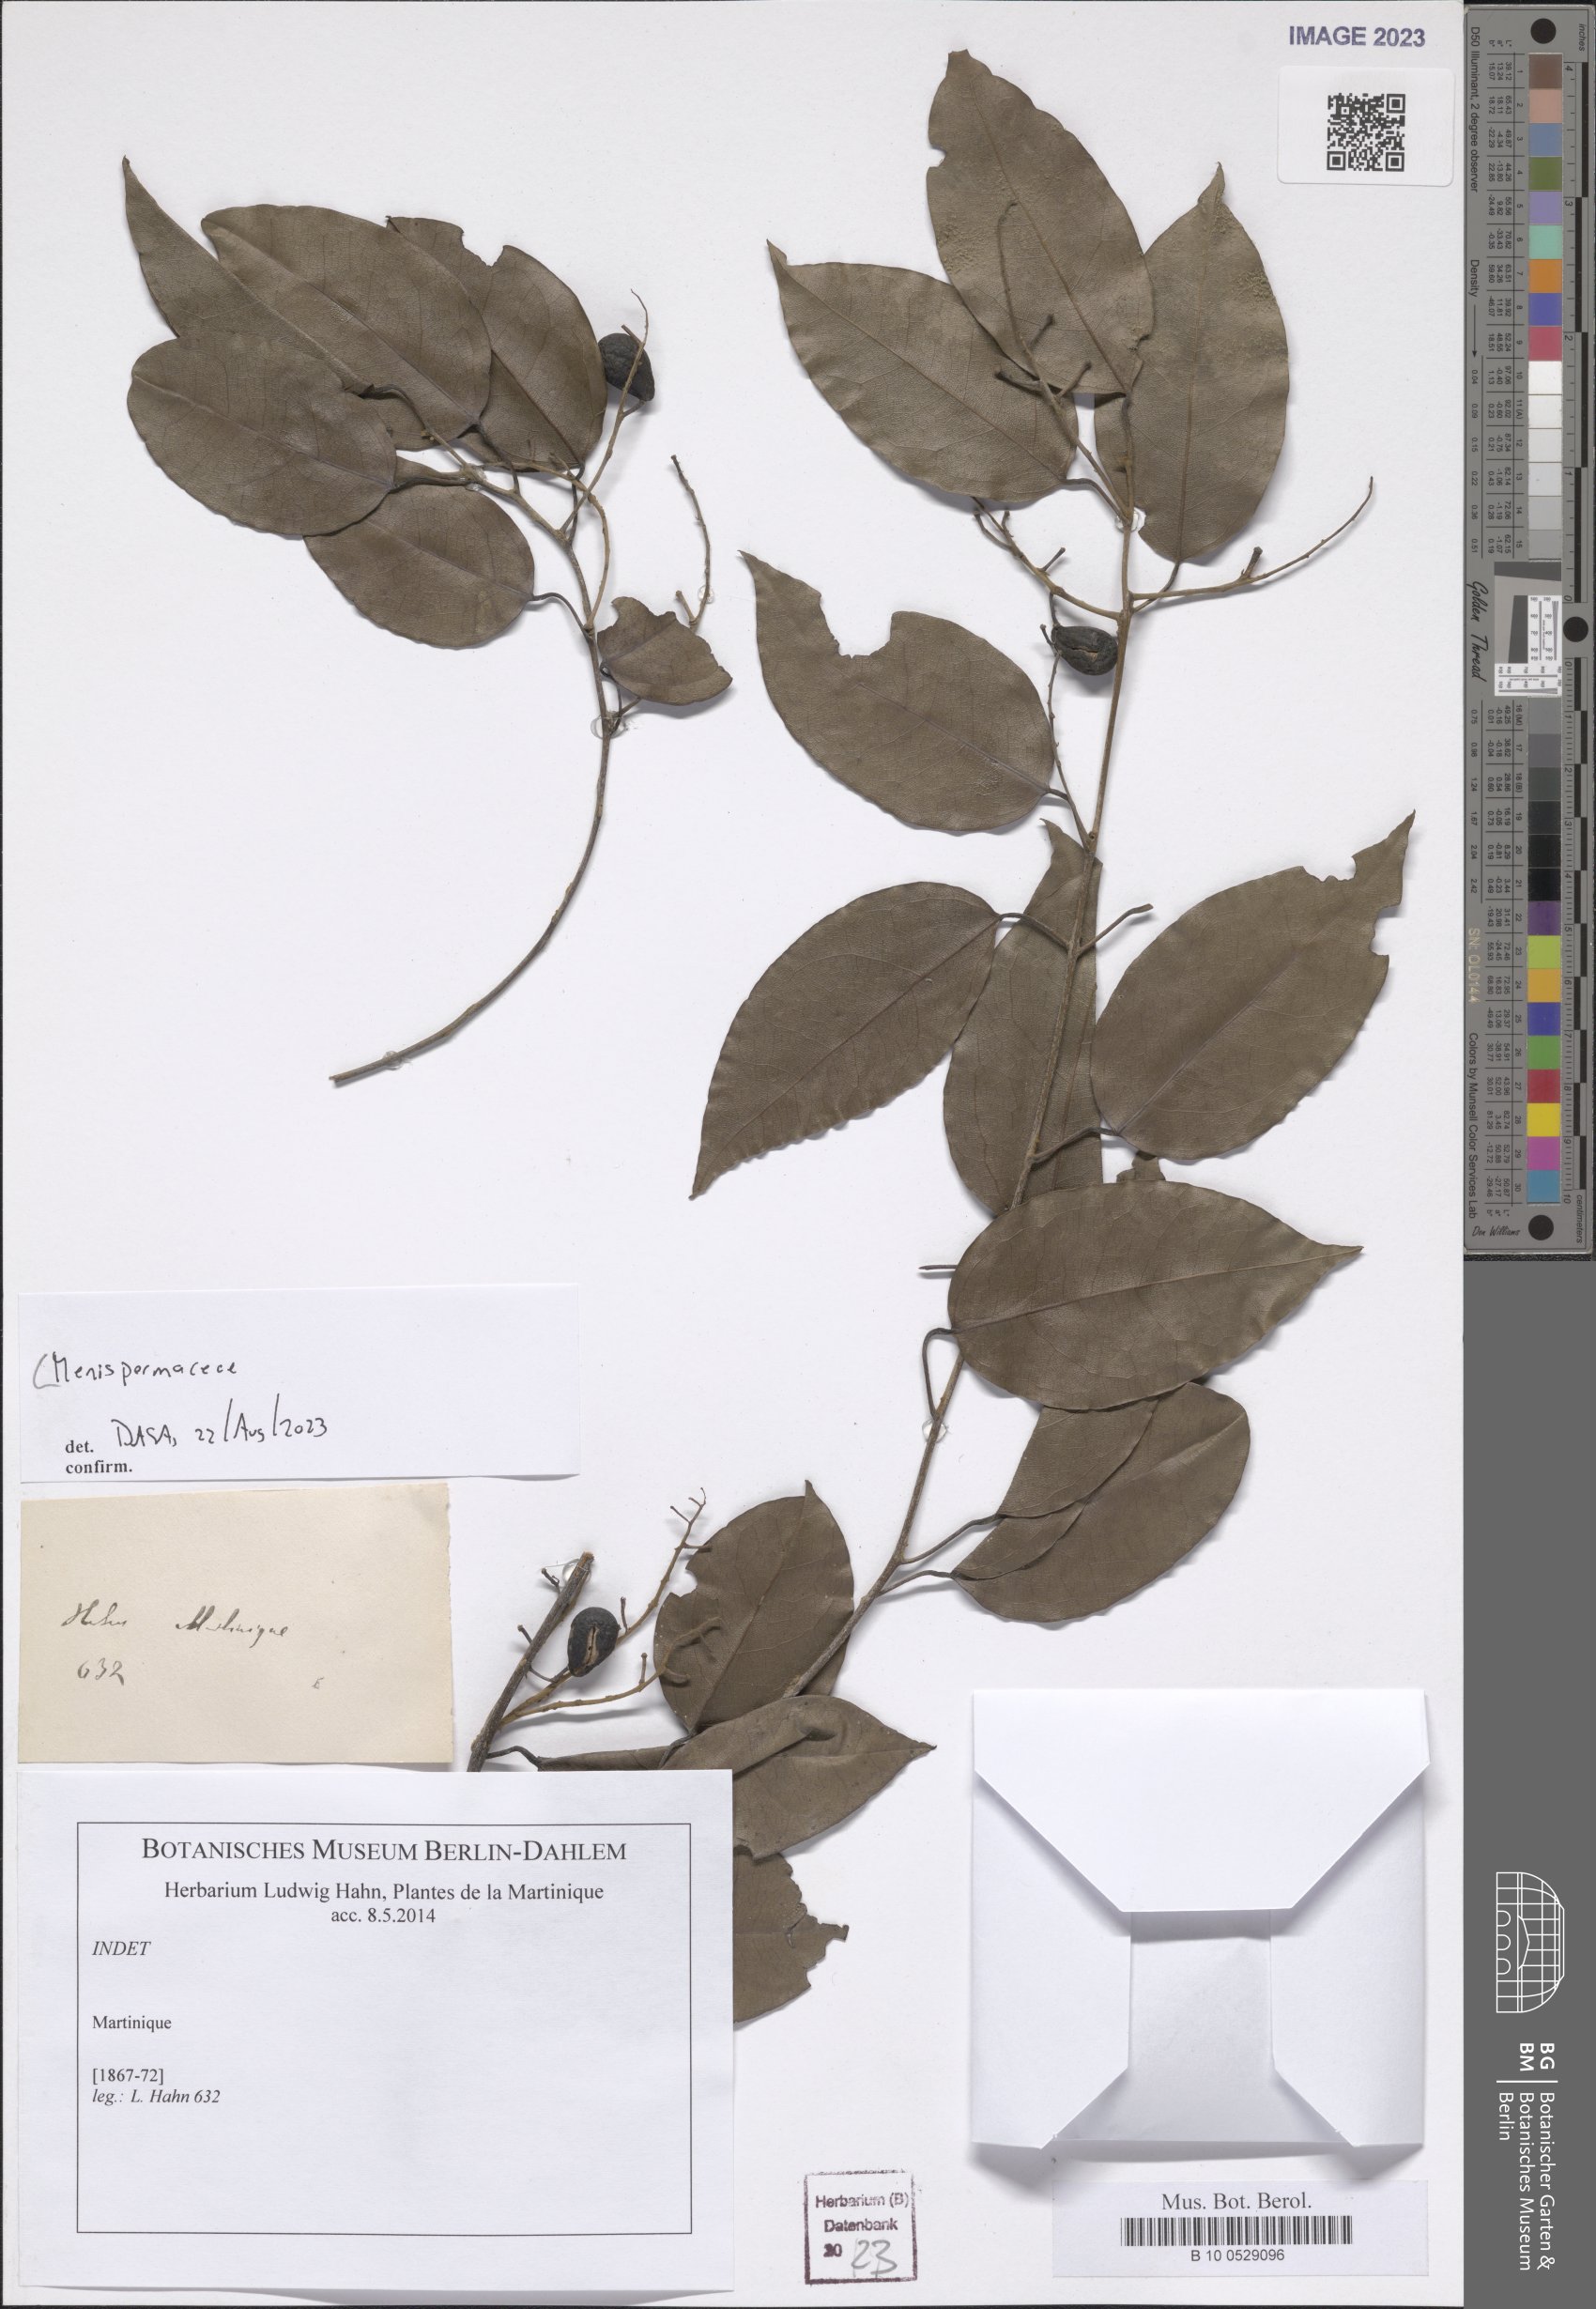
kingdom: Plantae
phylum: Tracheophyta
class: Magnoliopsida
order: Ranunculales
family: Menispermaceae
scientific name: Menispermaceae
